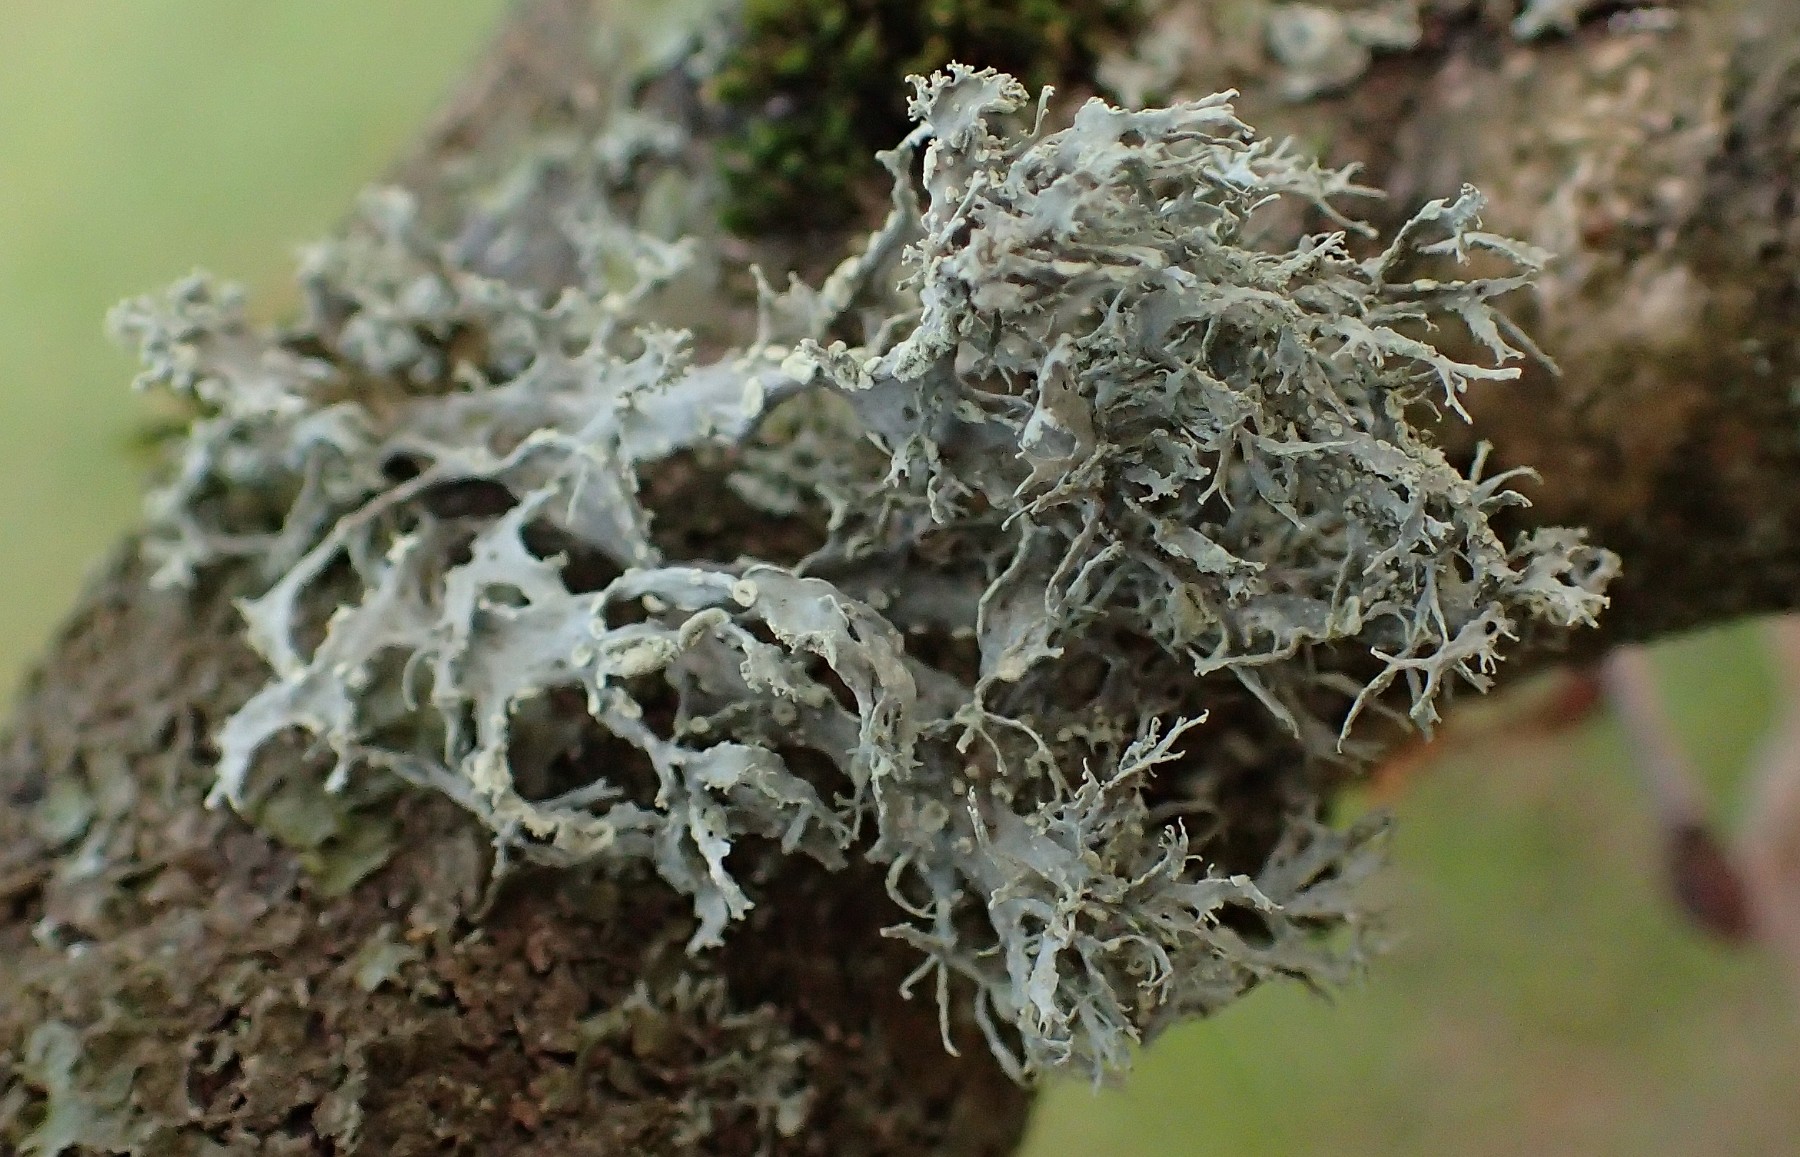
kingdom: Fungi
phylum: Ascomycota
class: Lecanoromycetes
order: Lecanorales
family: Ramalinaceae
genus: Ramalina
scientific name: Ramalina farinacea
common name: melet grenlav
